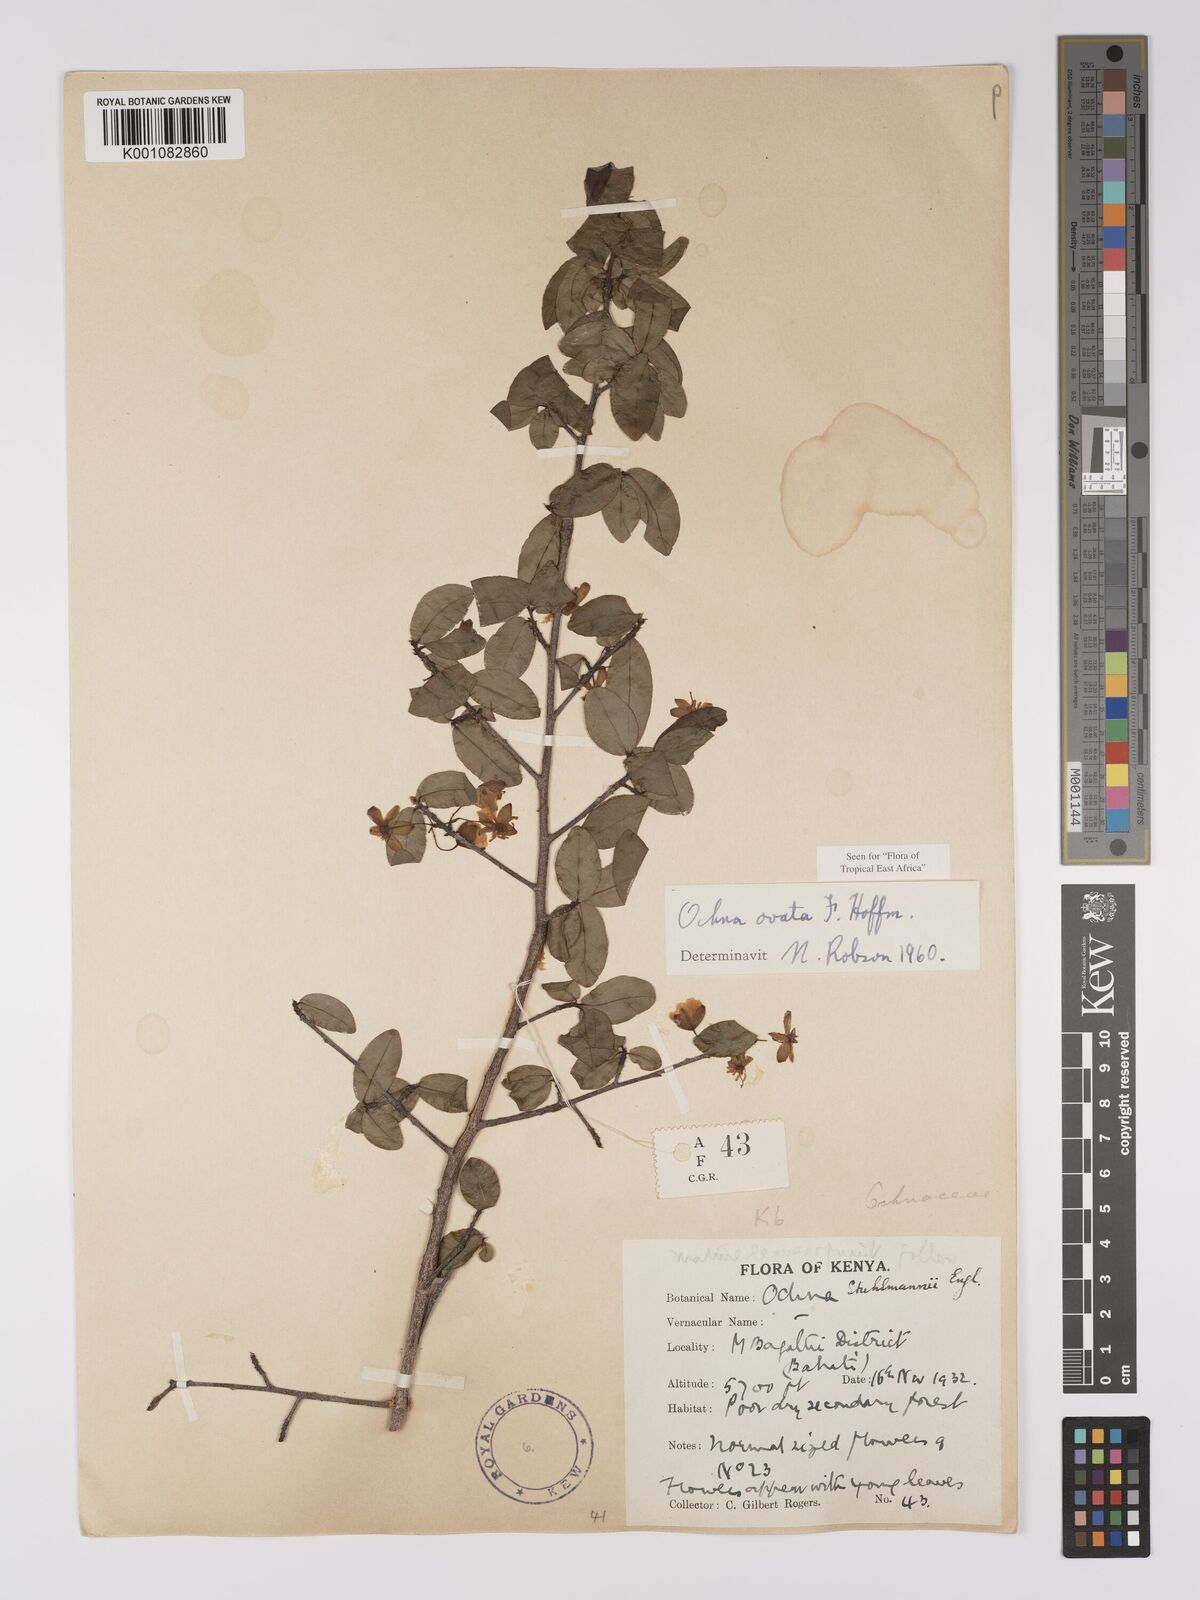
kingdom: Plantae
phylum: Tracheophyta
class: Magnoliopsida
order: Malpighiales
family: Ochnaceae
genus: Ochna
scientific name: Ochna ovata
